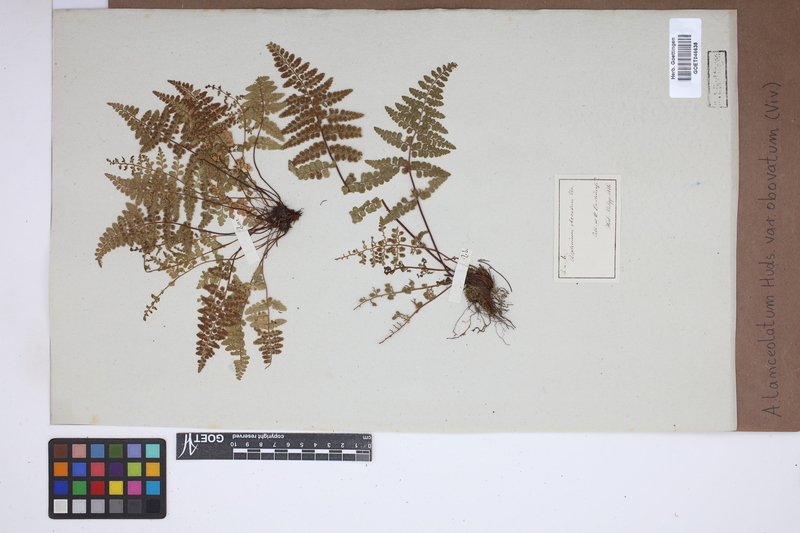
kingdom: Plantae
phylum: Tracheophyta
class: Polypodiopsida
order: Polypodiales
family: Aspleniaceae
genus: Asplenium
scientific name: Asplenium obovatum
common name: Lanceolate spleenwort
